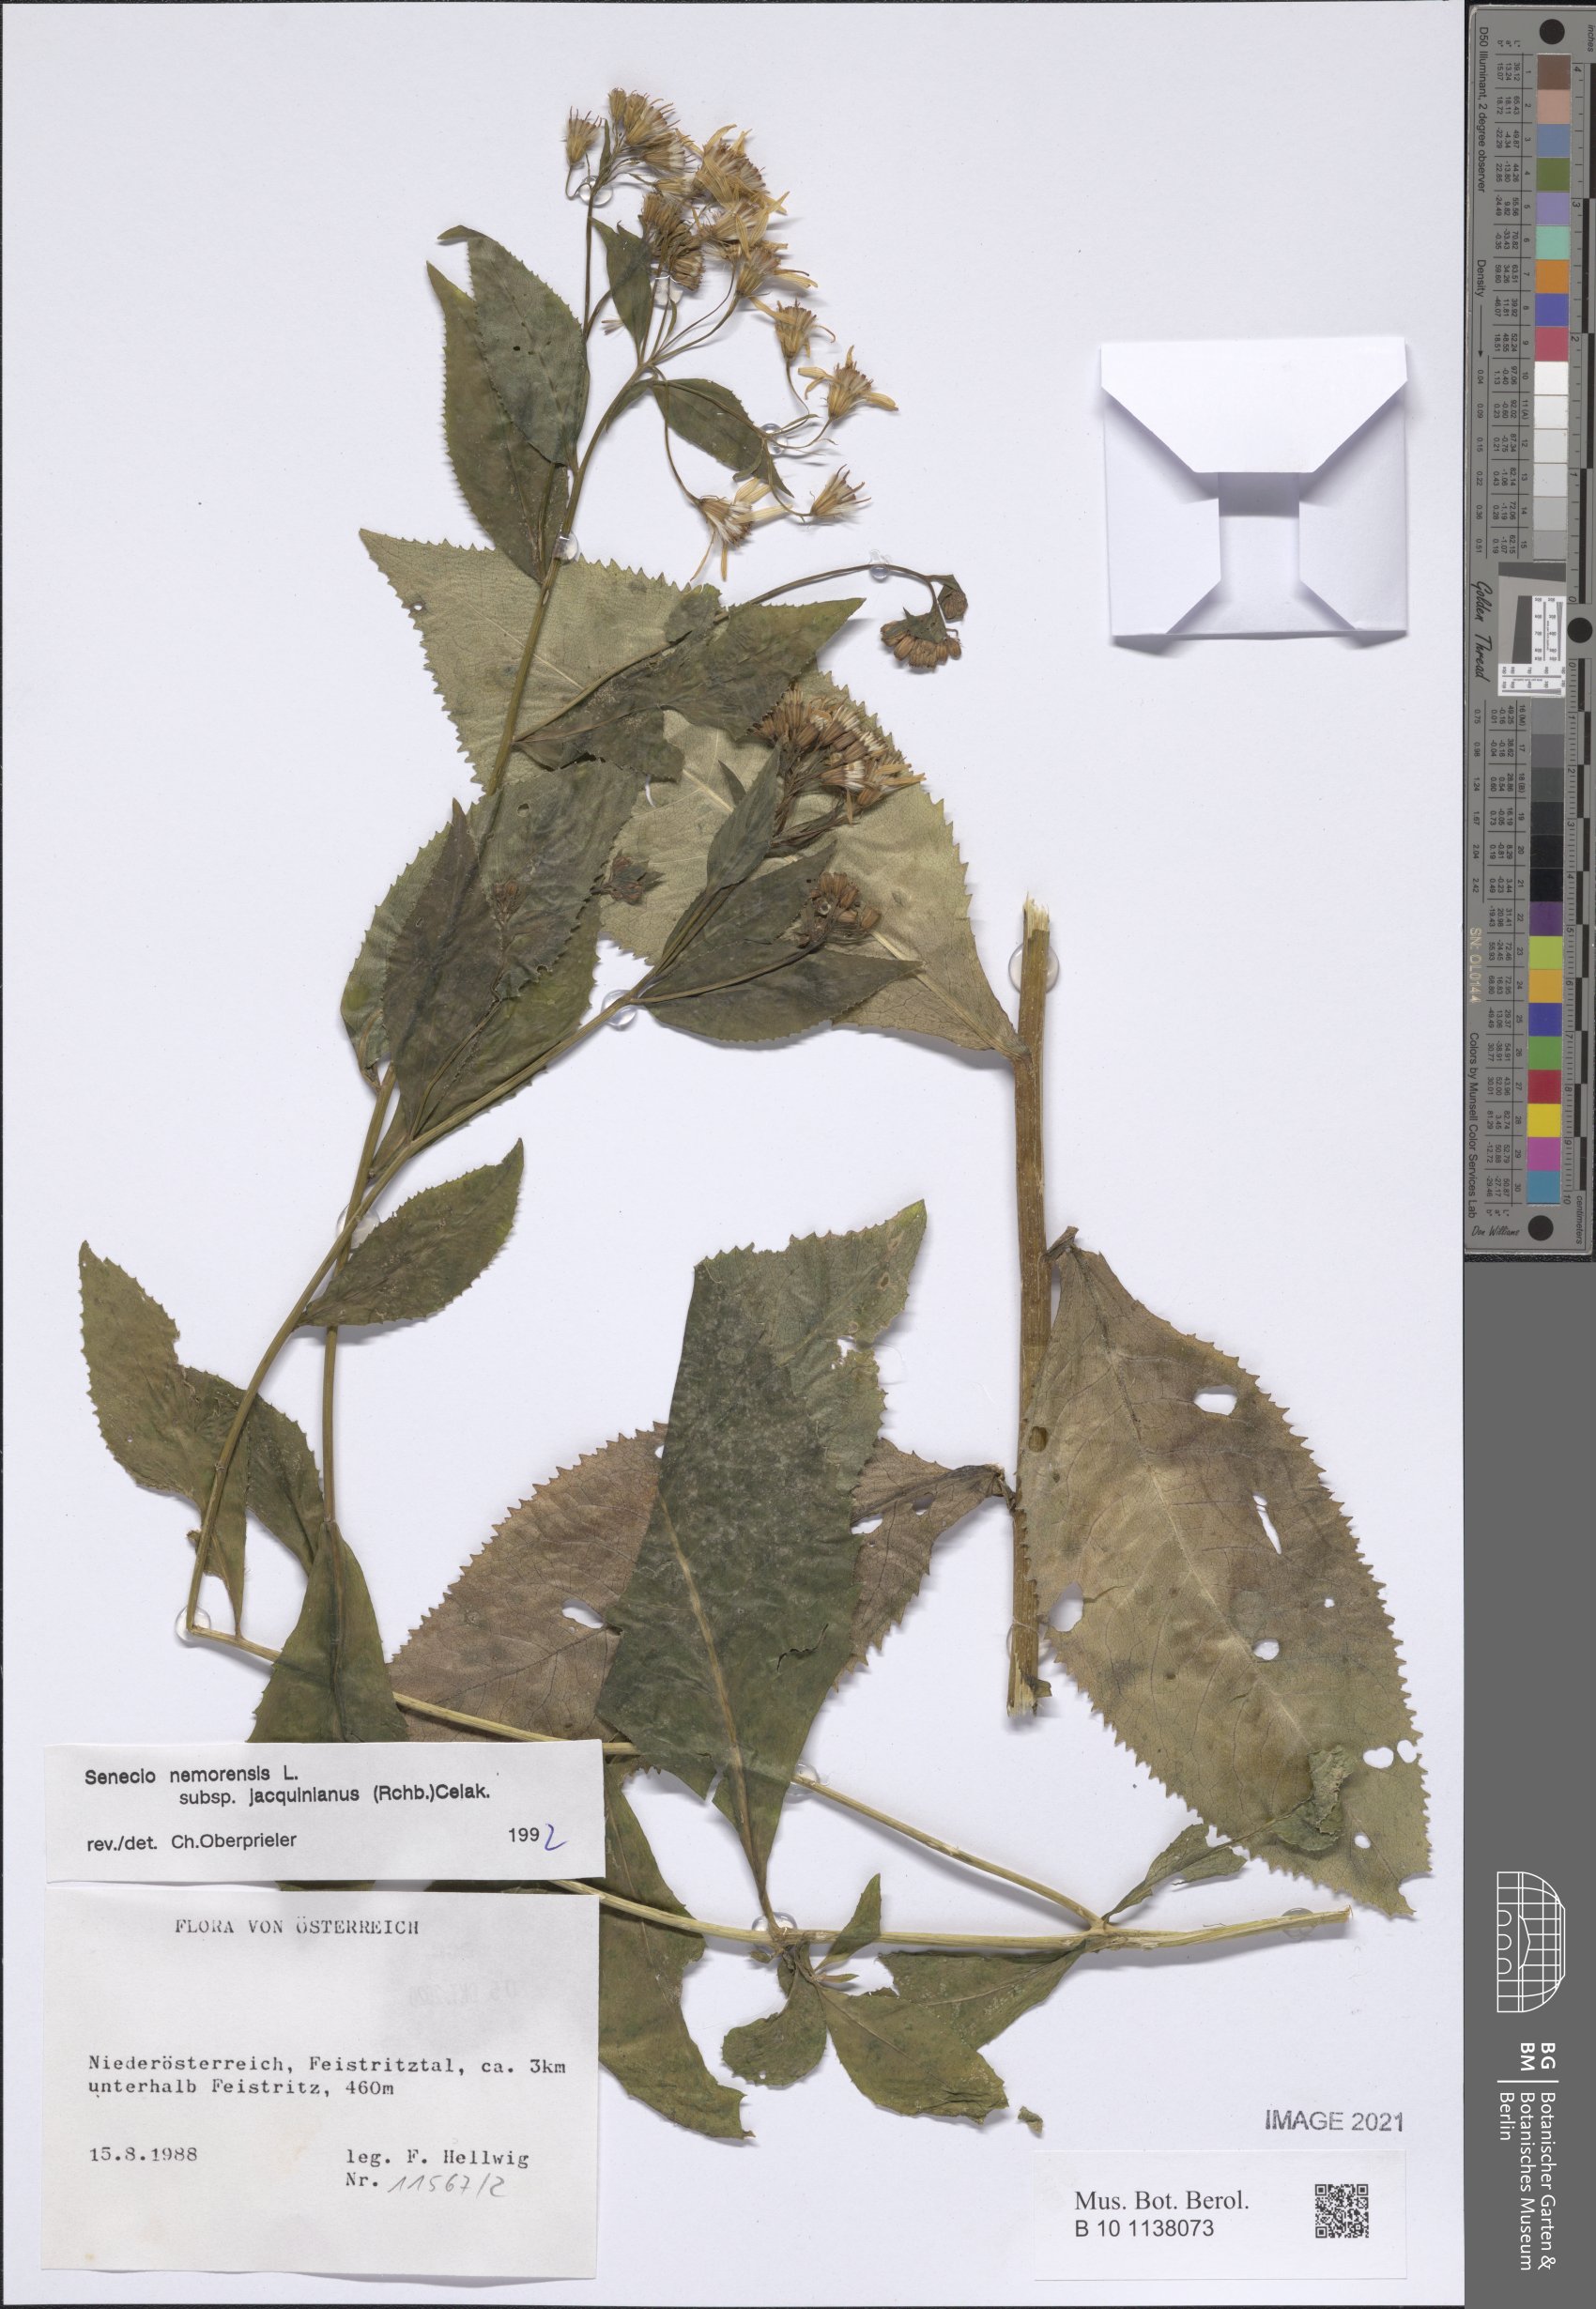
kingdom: Plantae
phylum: Tracheophyta
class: Magnoliopsida
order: Asterales
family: Asteraceae
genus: Senecio
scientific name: Senecio germanicus
